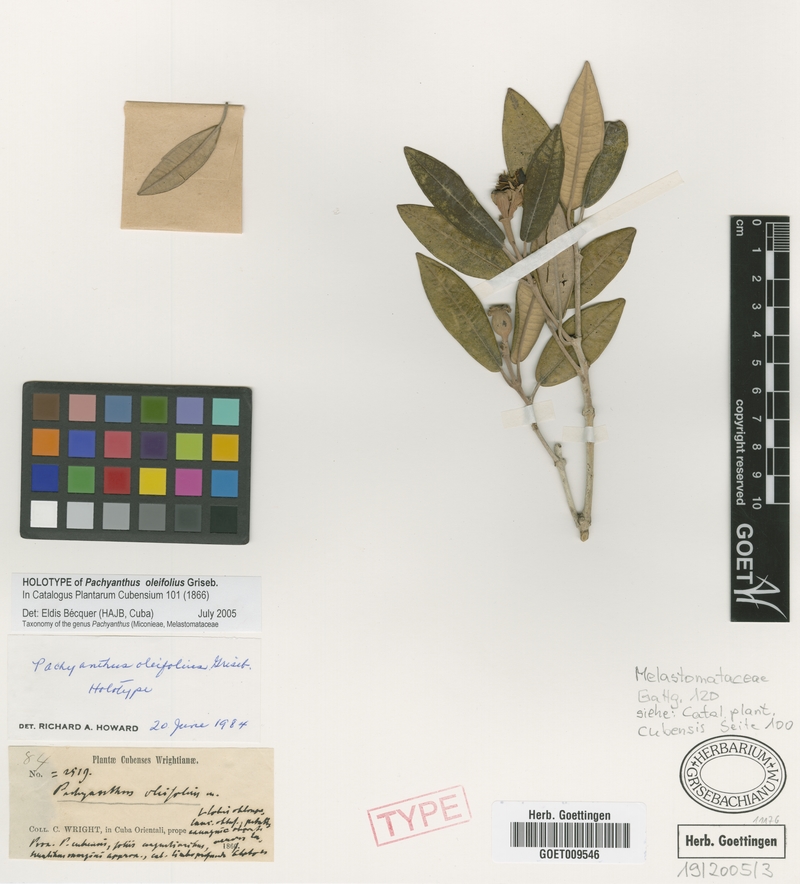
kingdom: Plantae
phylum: Tracheophyta
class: Magnoliopsida
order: Myrtales
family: Melastomataceae
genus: Miconia
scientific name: Miconia oleifolia
